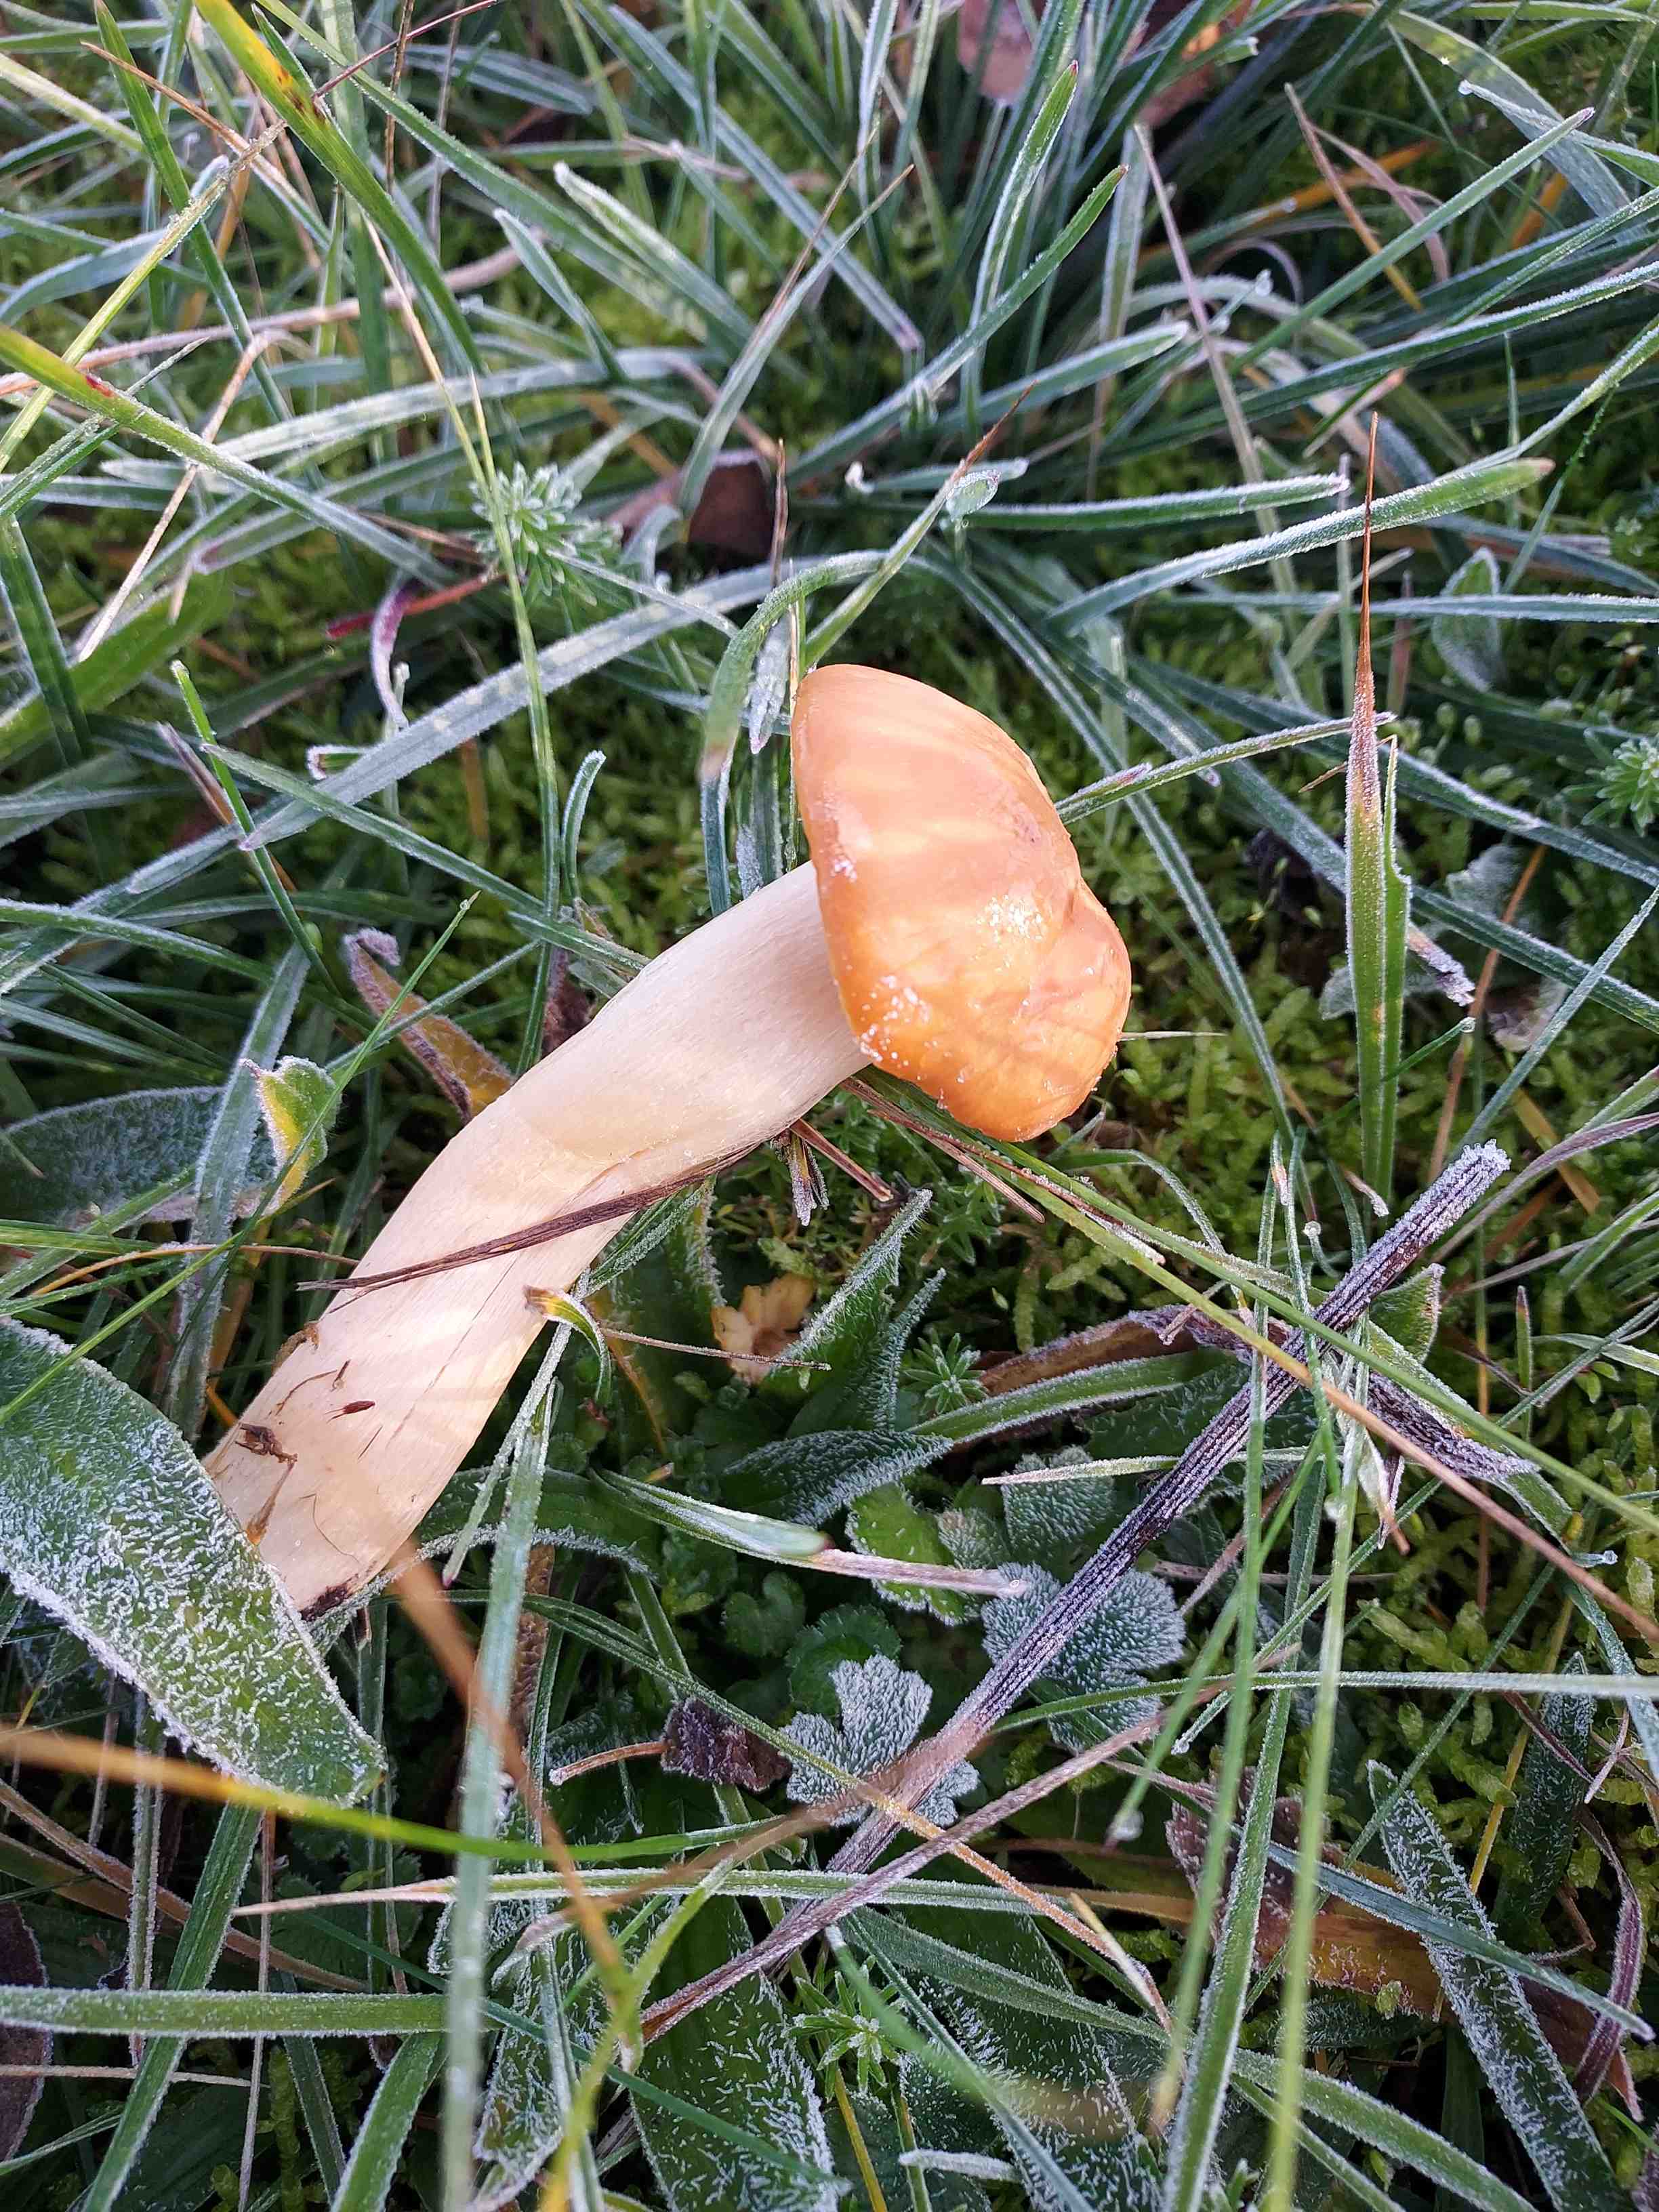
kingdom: Fungi
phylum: Basidiomycota
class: Agaricomycetes
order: Agaricales
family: Hygrophoraceae
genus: Cuphophyllus
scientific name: Cuphophyllus pratensis
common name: eng-vokshat
